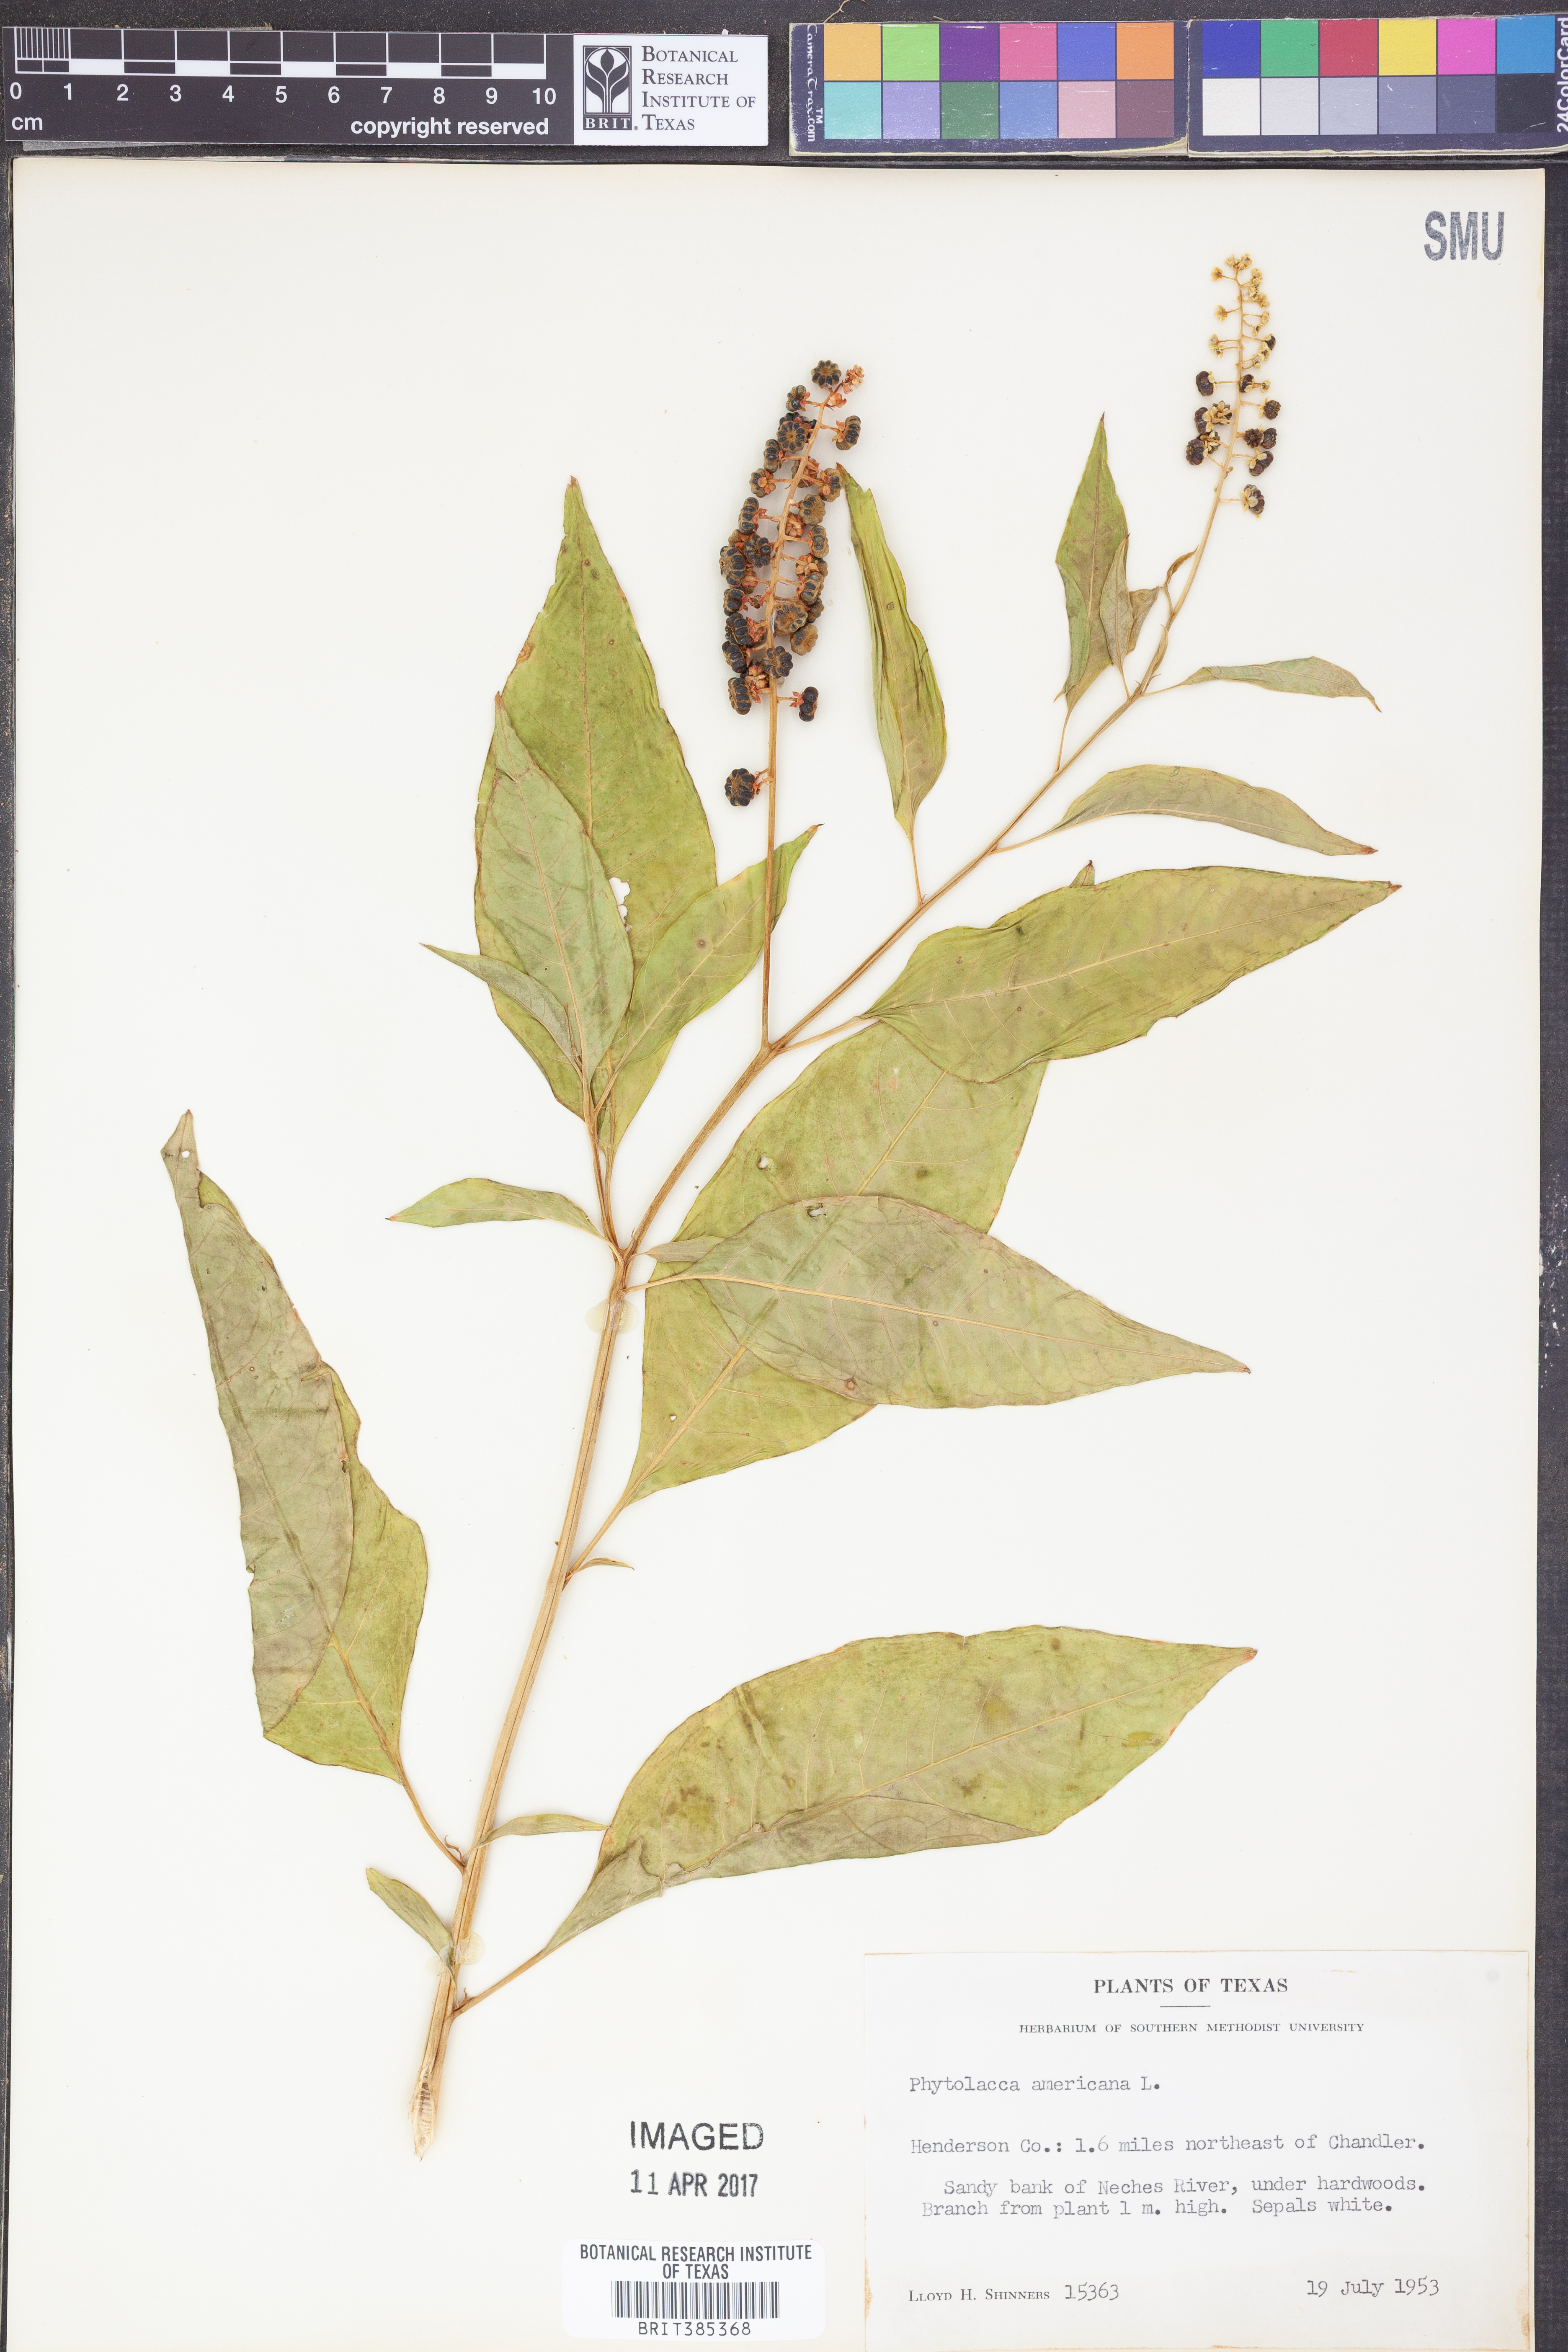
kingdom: Plantae
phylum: Tracheophyta
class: Magnoliopsida
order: Caryophyllales
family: Phytolaccaceae
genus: Phytolacca
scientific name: Phytolacca americana
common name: American pokeweed
